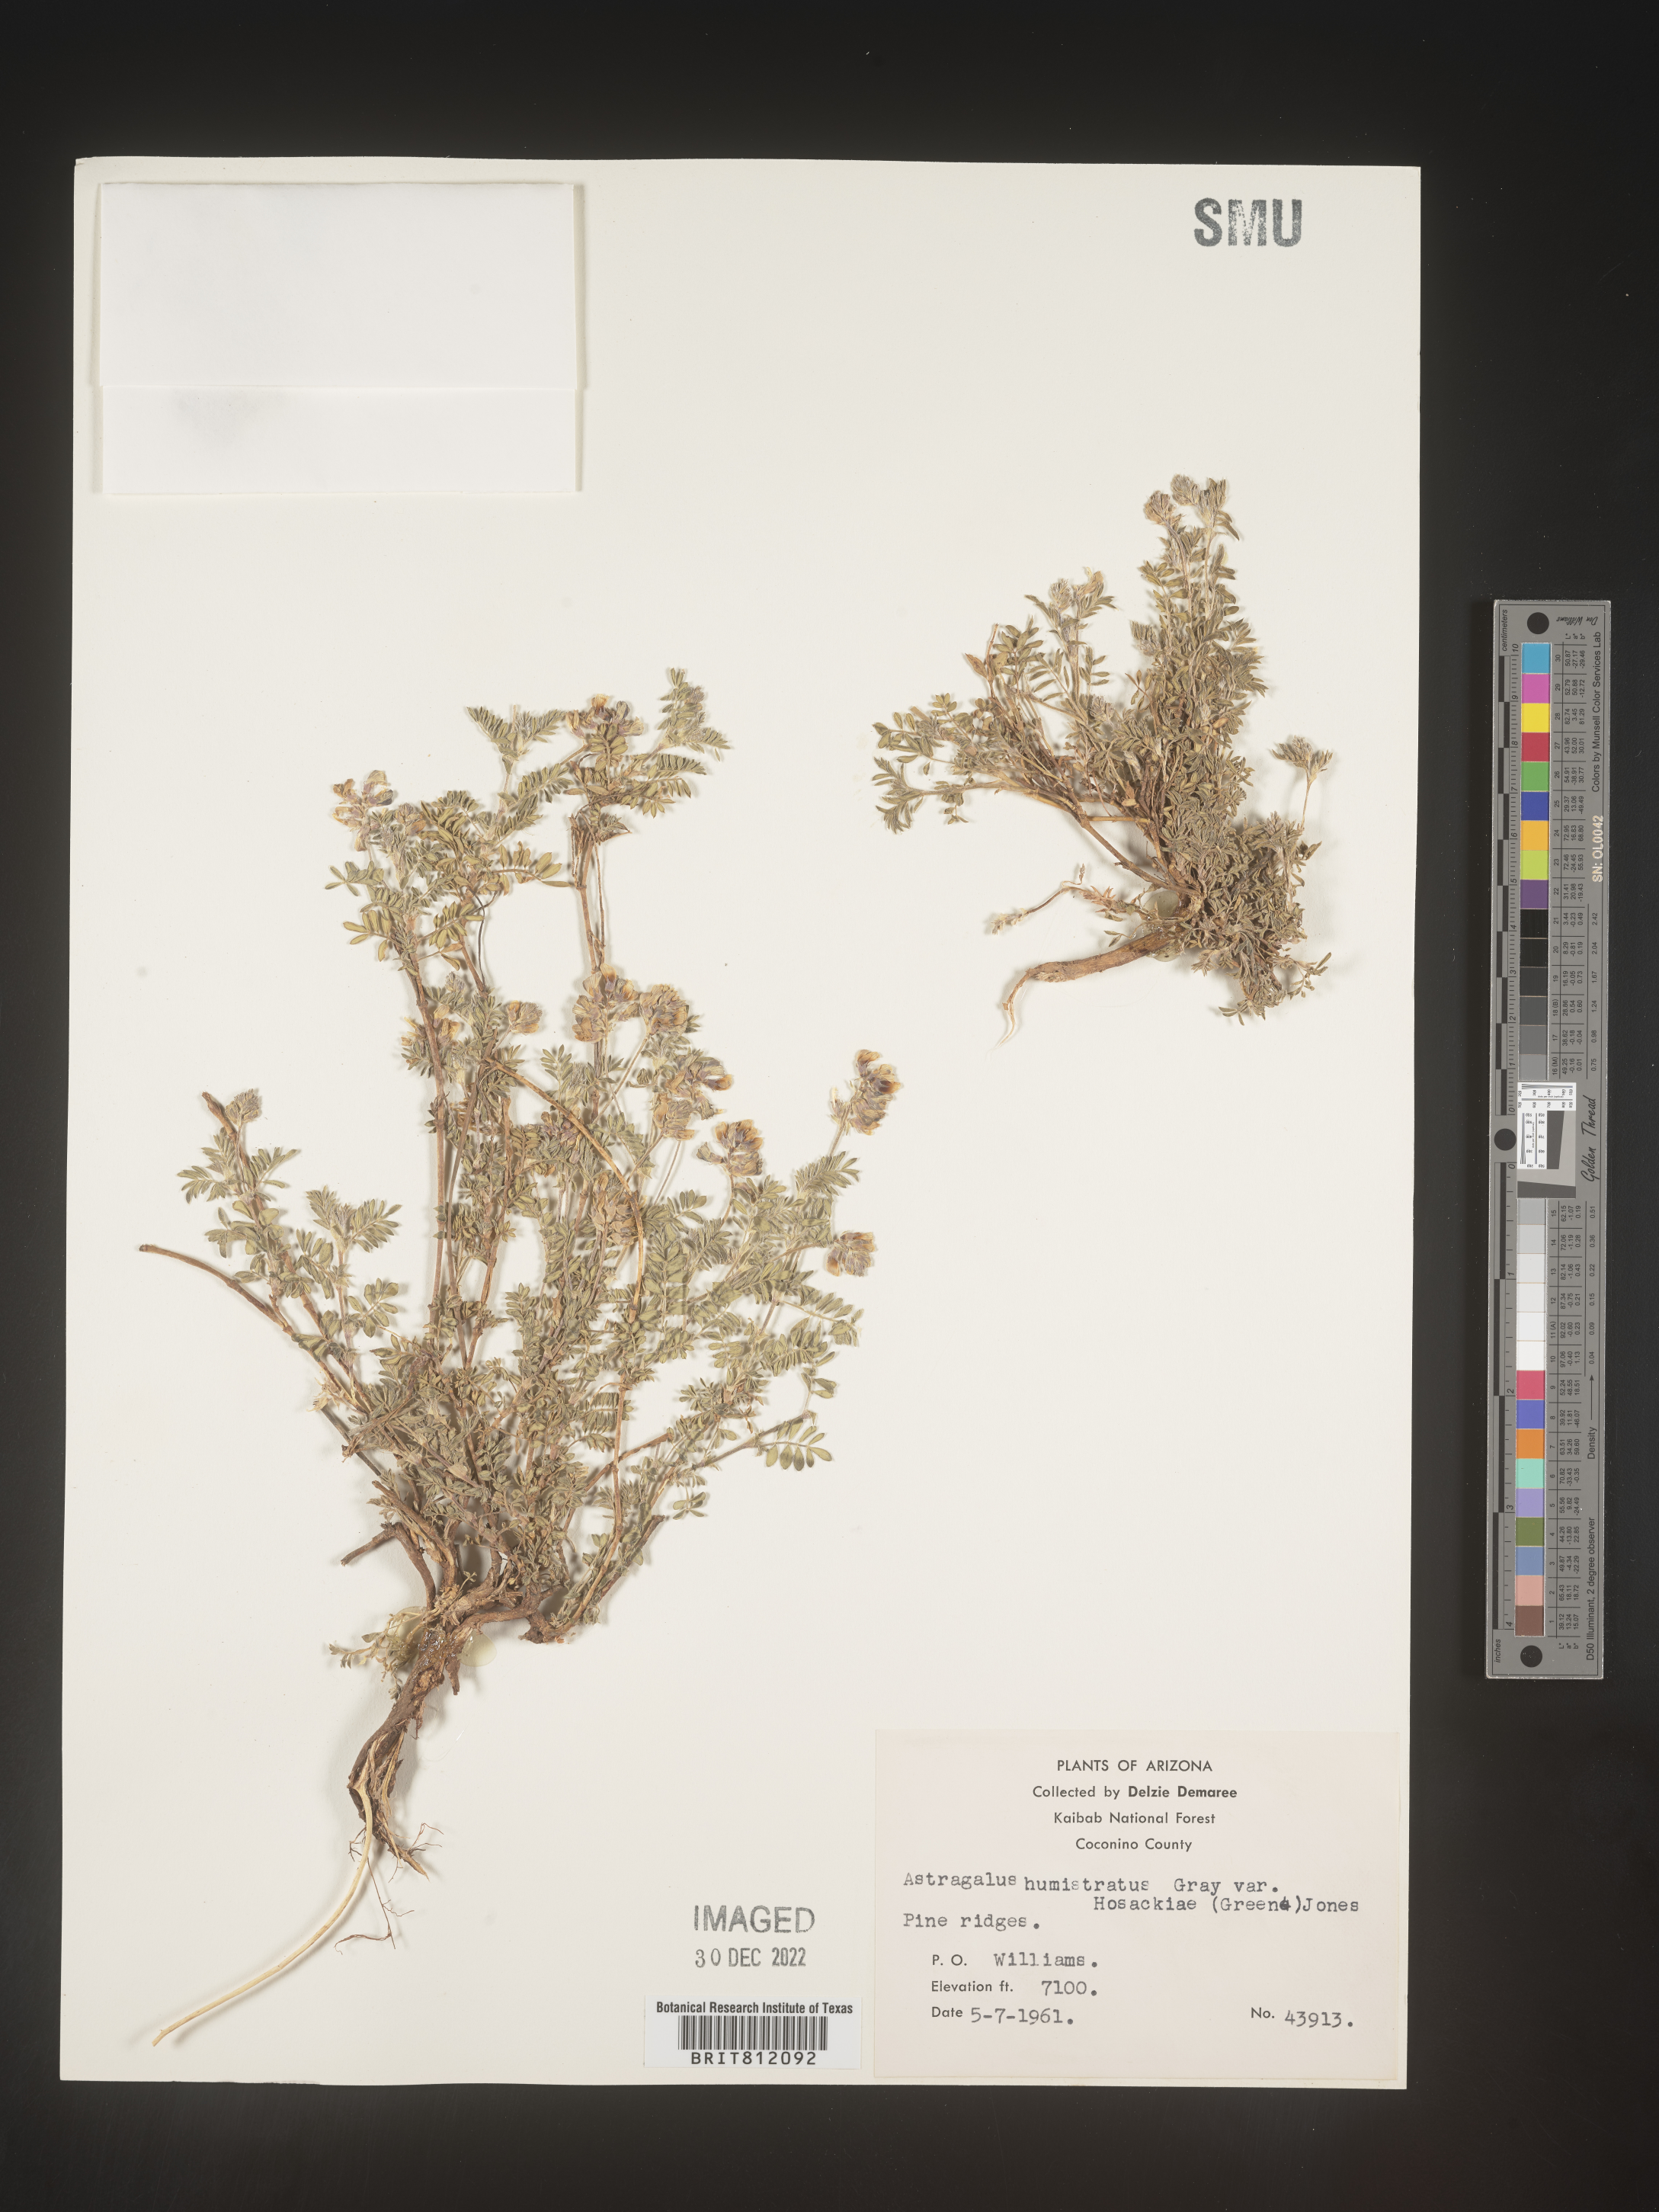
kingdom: Plantae
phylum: Tracheophyta
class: Magnoliopsida
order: Fabales
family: Fabaceae
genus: Astragalus
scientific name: Astragalus
